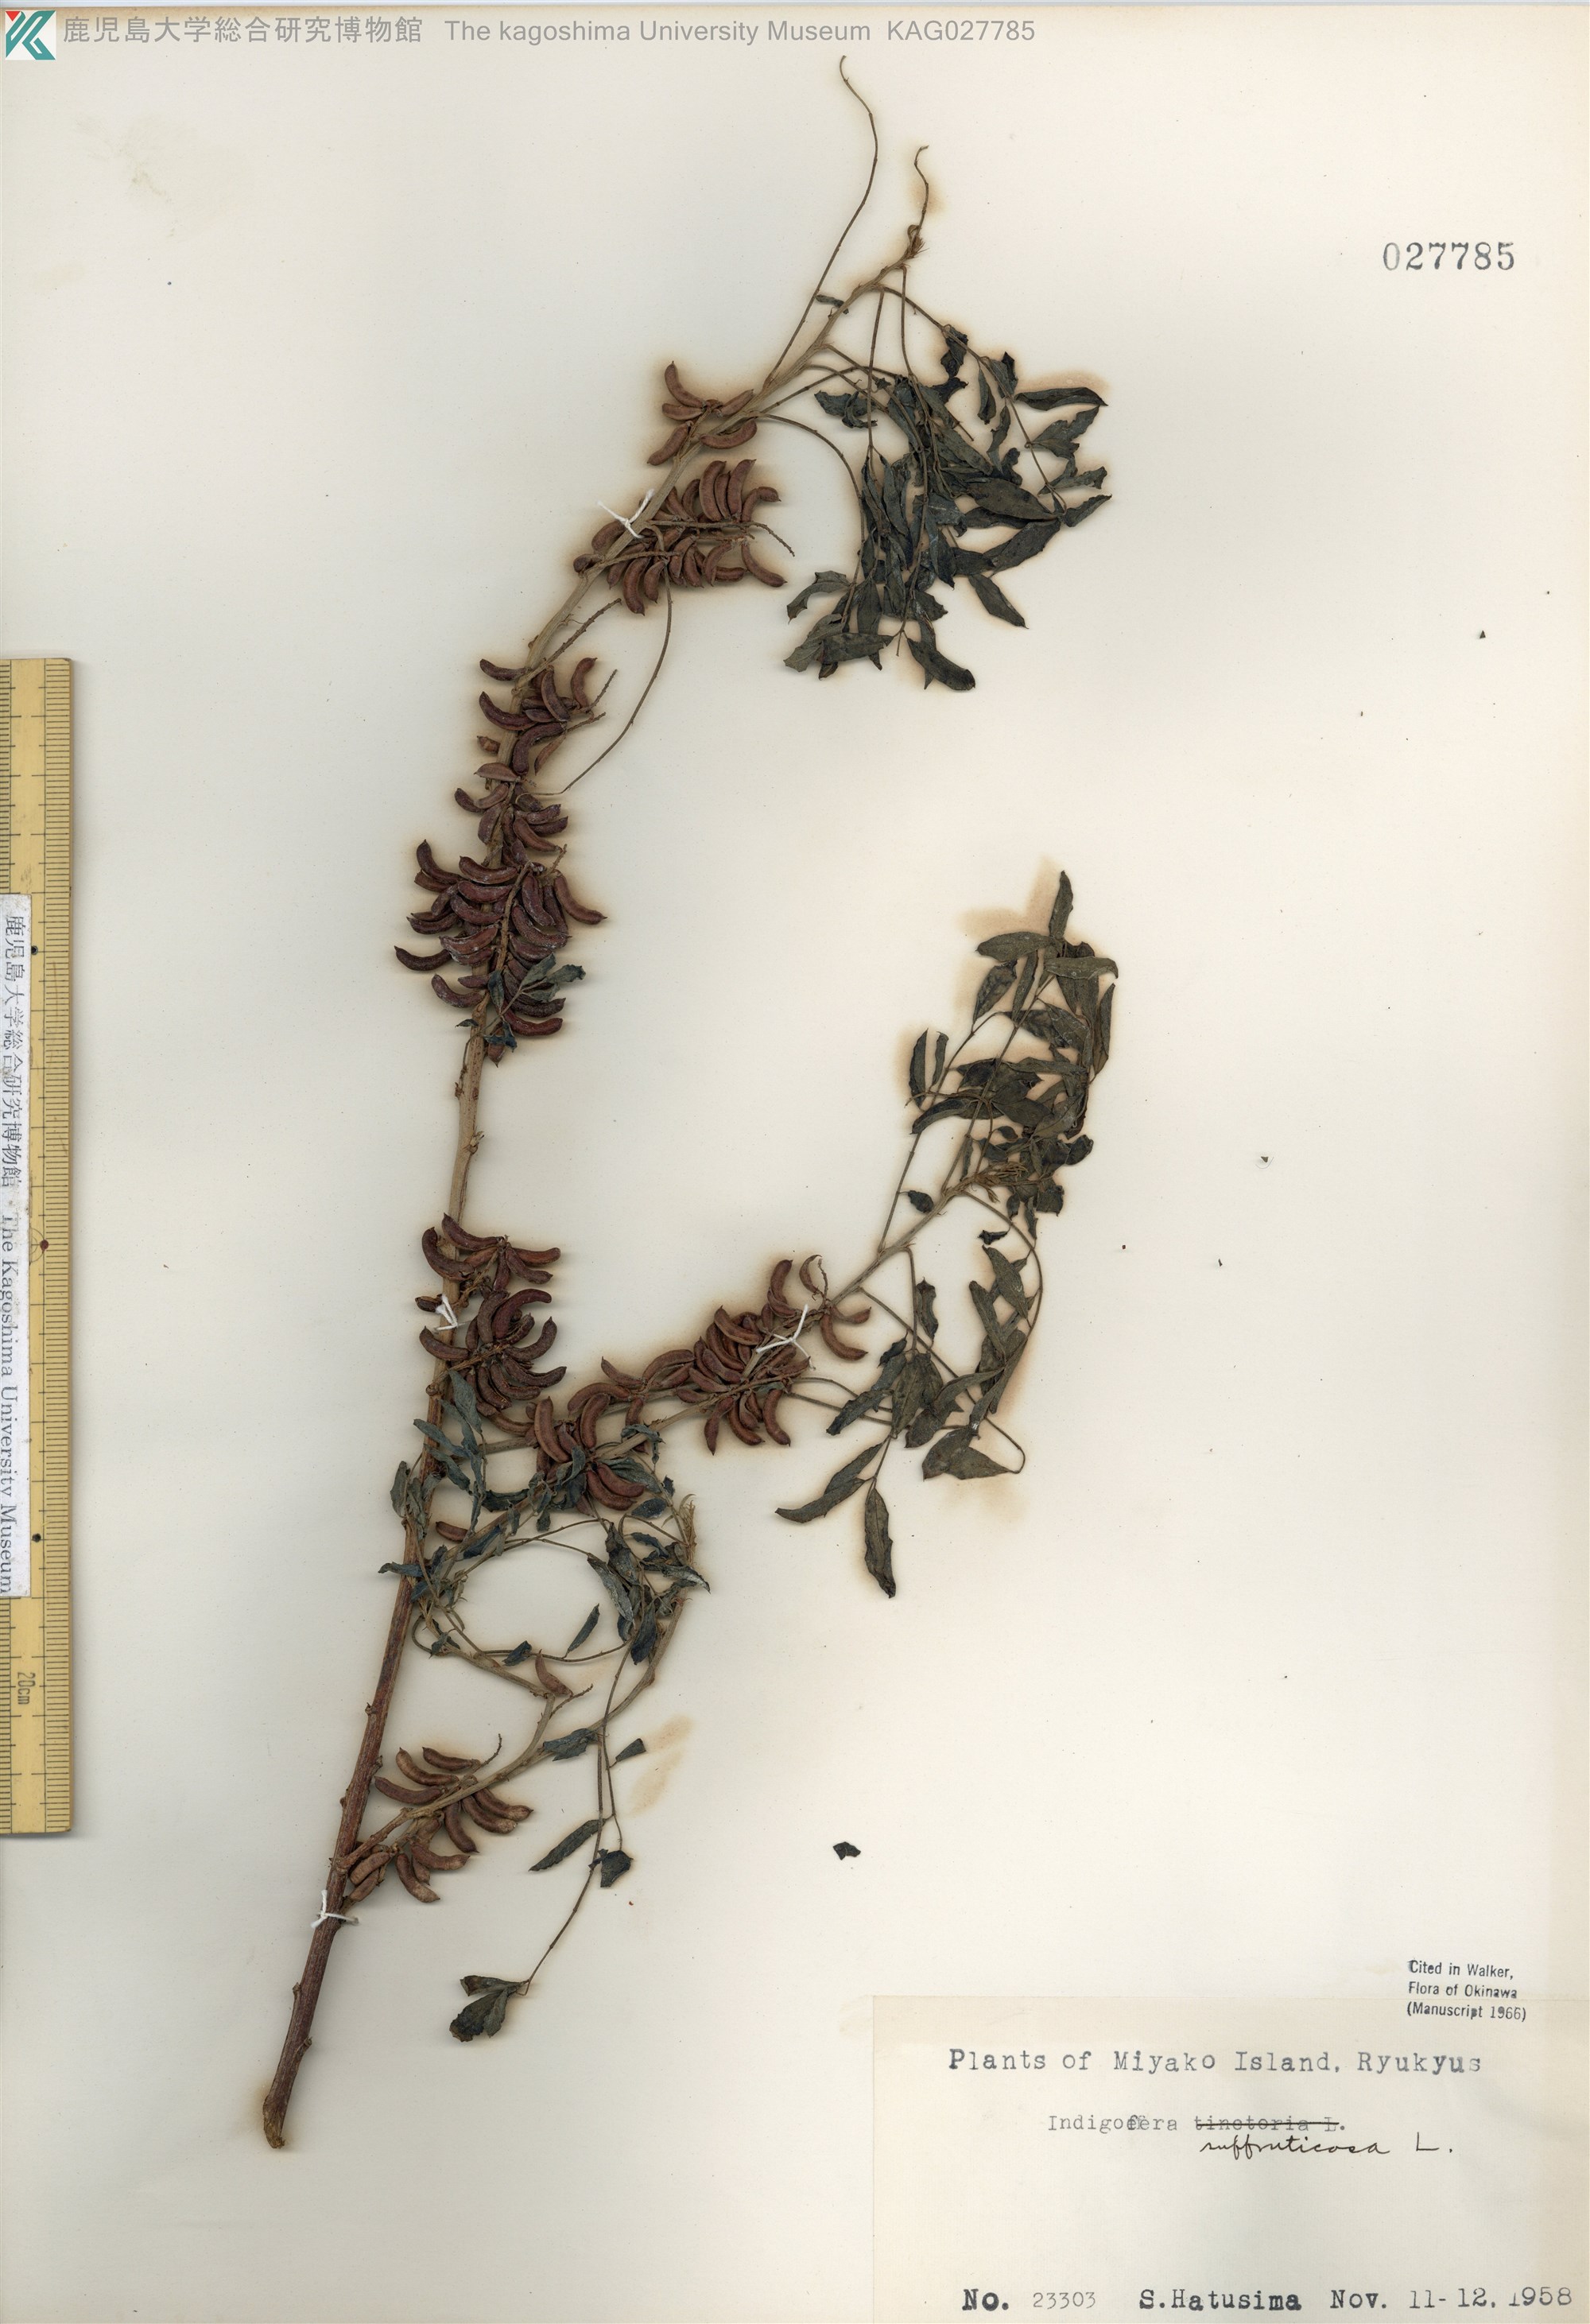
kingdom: Plantae
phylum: Tracheophyta
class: Magnoliopsida
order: Fabales
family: Fabaceae
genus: Indigofera
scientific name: Indigofera suffruticosa
